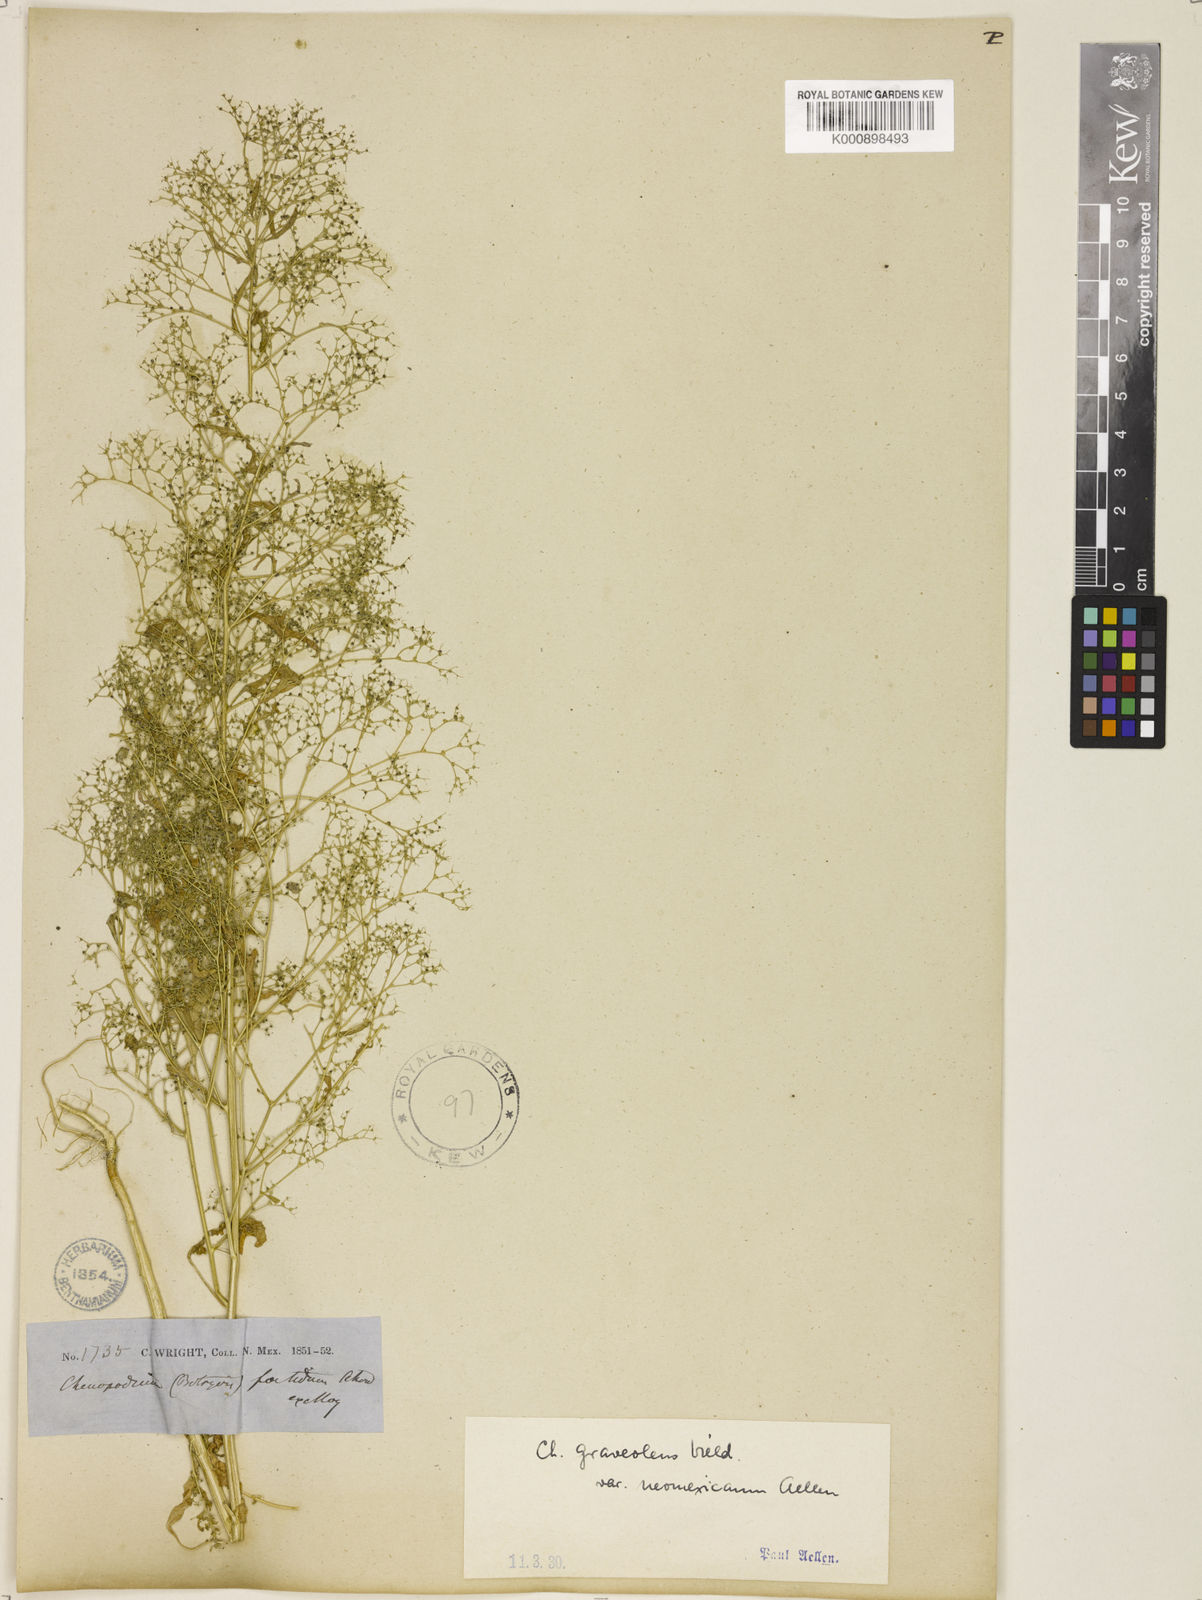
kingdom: Plantae
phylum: Tracheophyta
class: Magnoliopsida
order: Caryophyllales
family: Amaranthaceae
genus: Dysphania
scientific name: Dysphania graveolens
